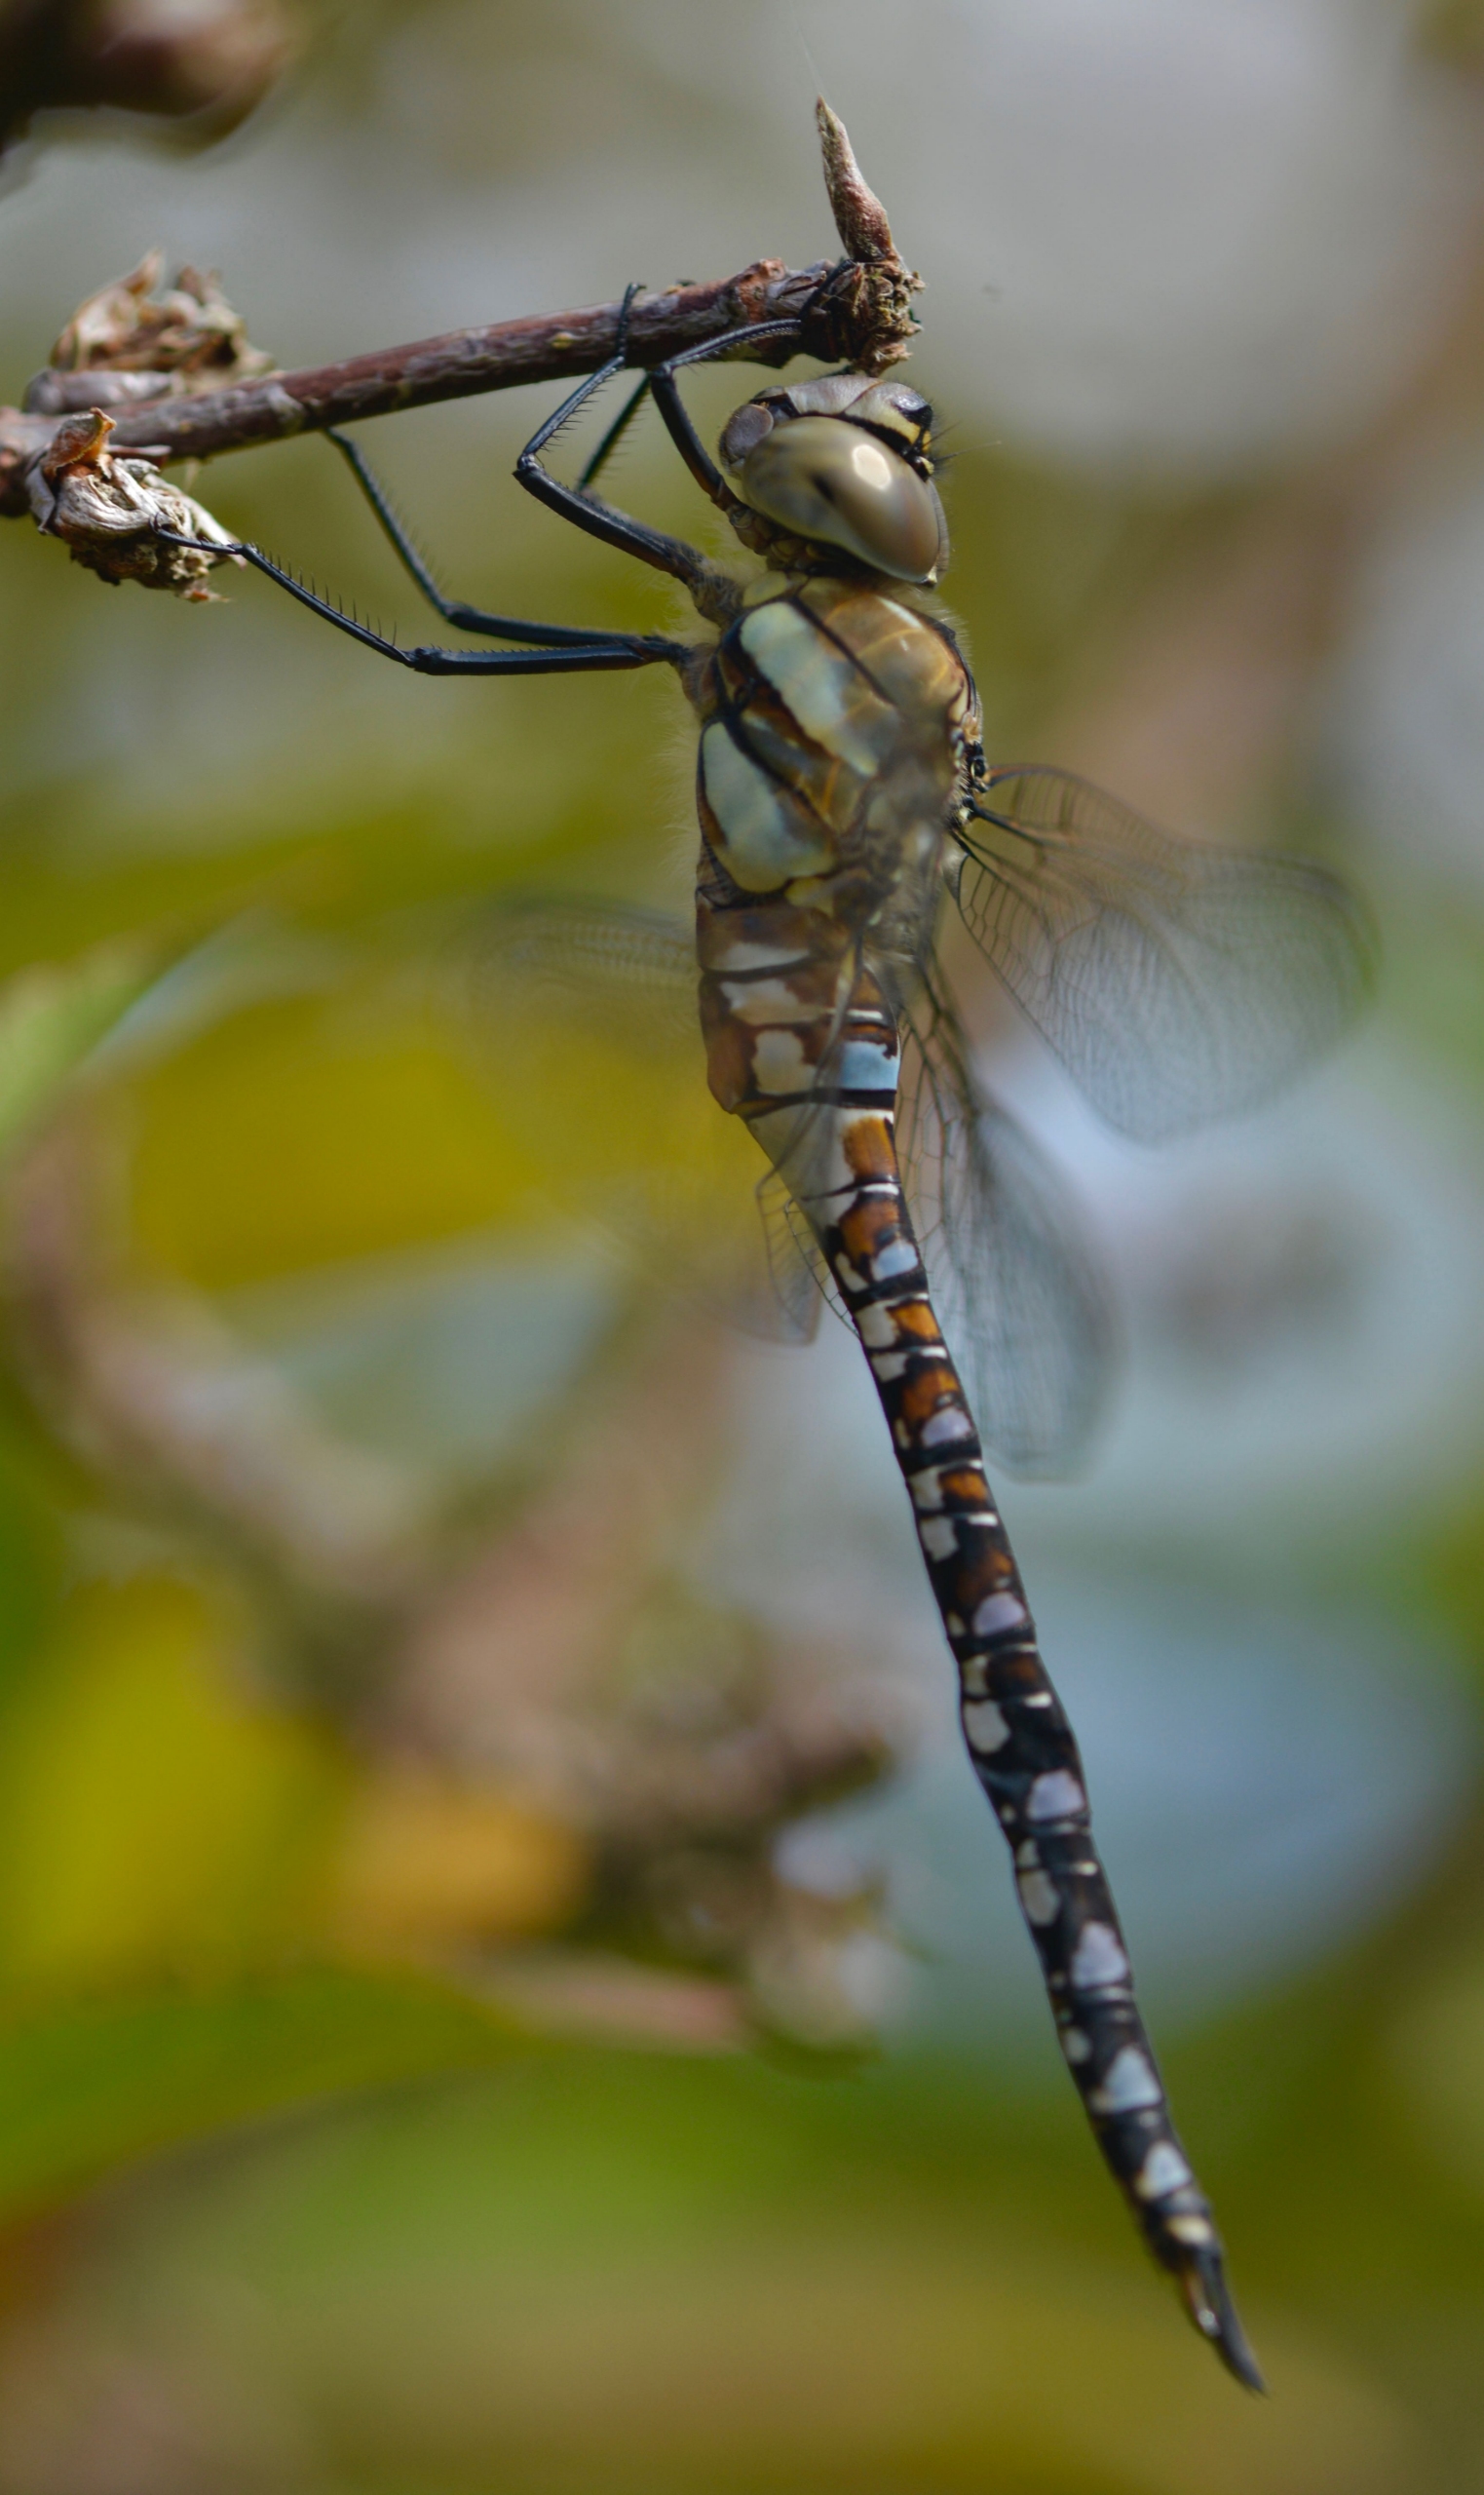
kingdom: Animalia
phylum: Arthropoda
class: Insecta
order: Odonata
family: Aeshnidae
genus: Aeshna
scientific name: Aeshna mixta
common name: Efterårs-mosaikguldsmed
